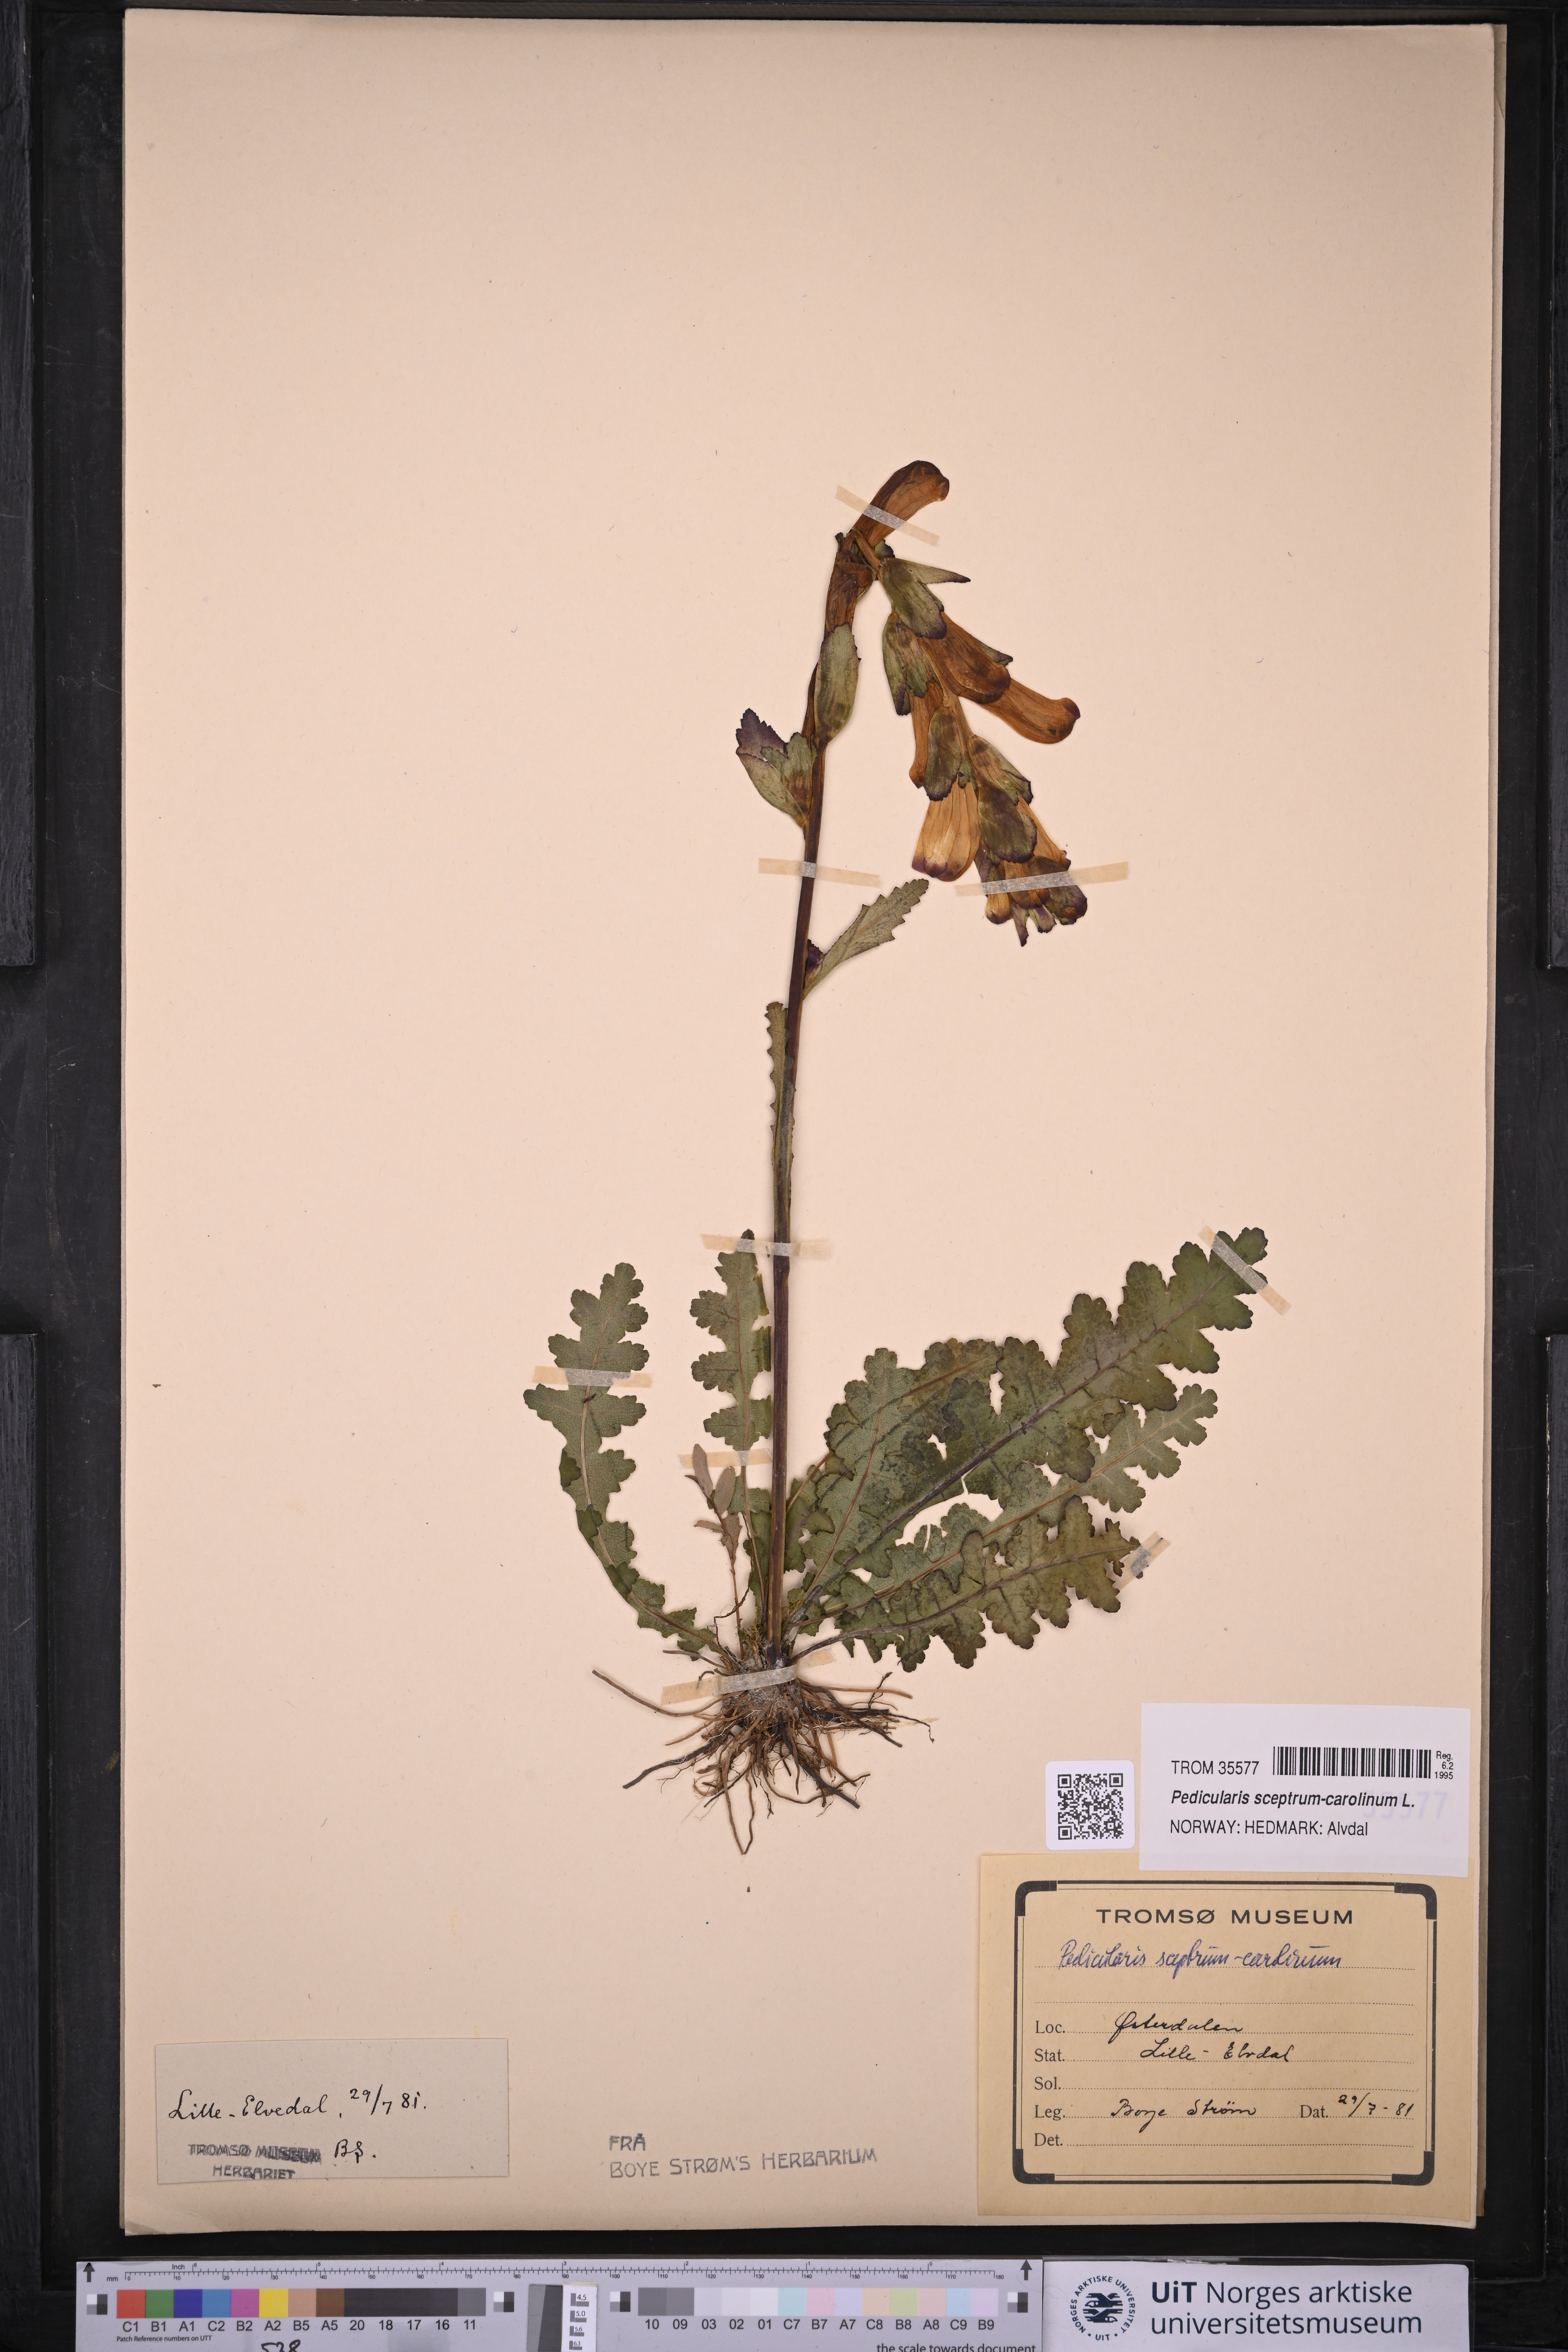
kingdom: Plantae
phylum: Tracheophyta
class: Magnoliopsida
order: Lamiales
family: Orobanchaceae
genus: Pedicularis
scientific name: Pedicularis sceptrum-carolinum
